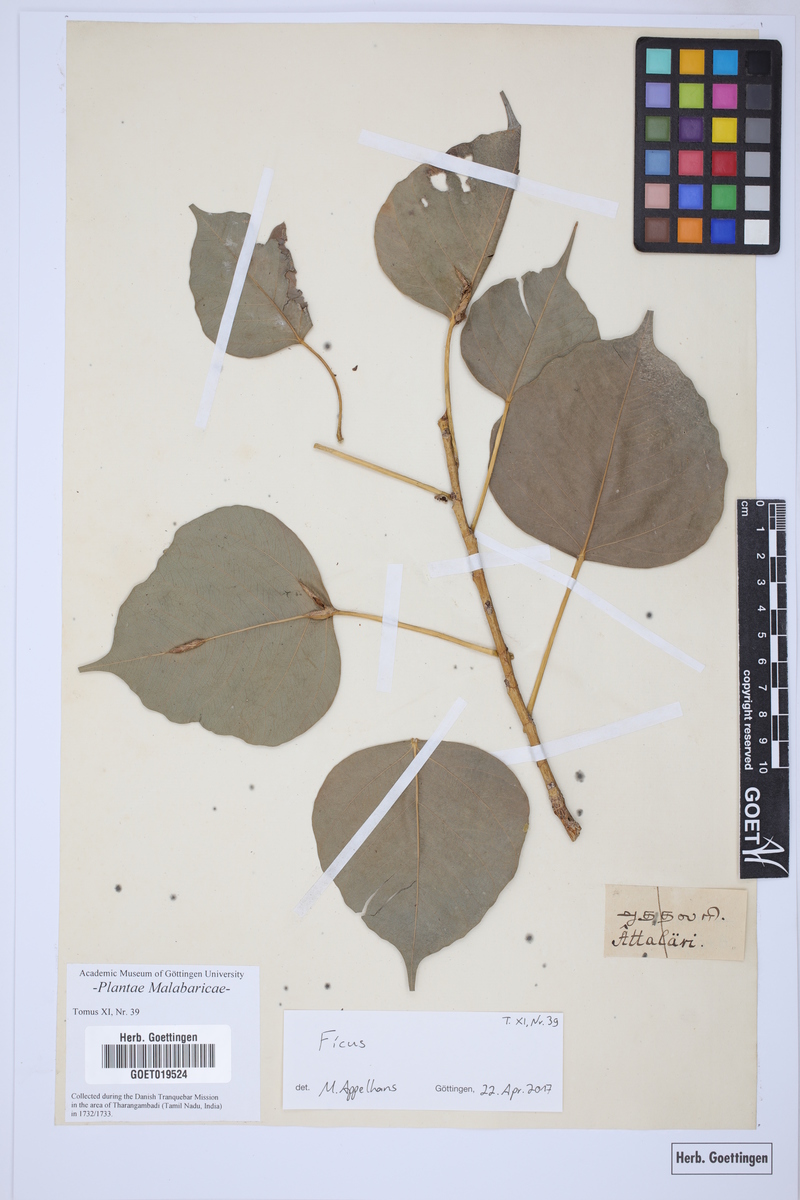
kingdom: Plantae
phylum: Tracheophyta
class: Magnoliopsida
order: Rosales
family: Moraceae
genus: Ficus
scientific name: Ficus
